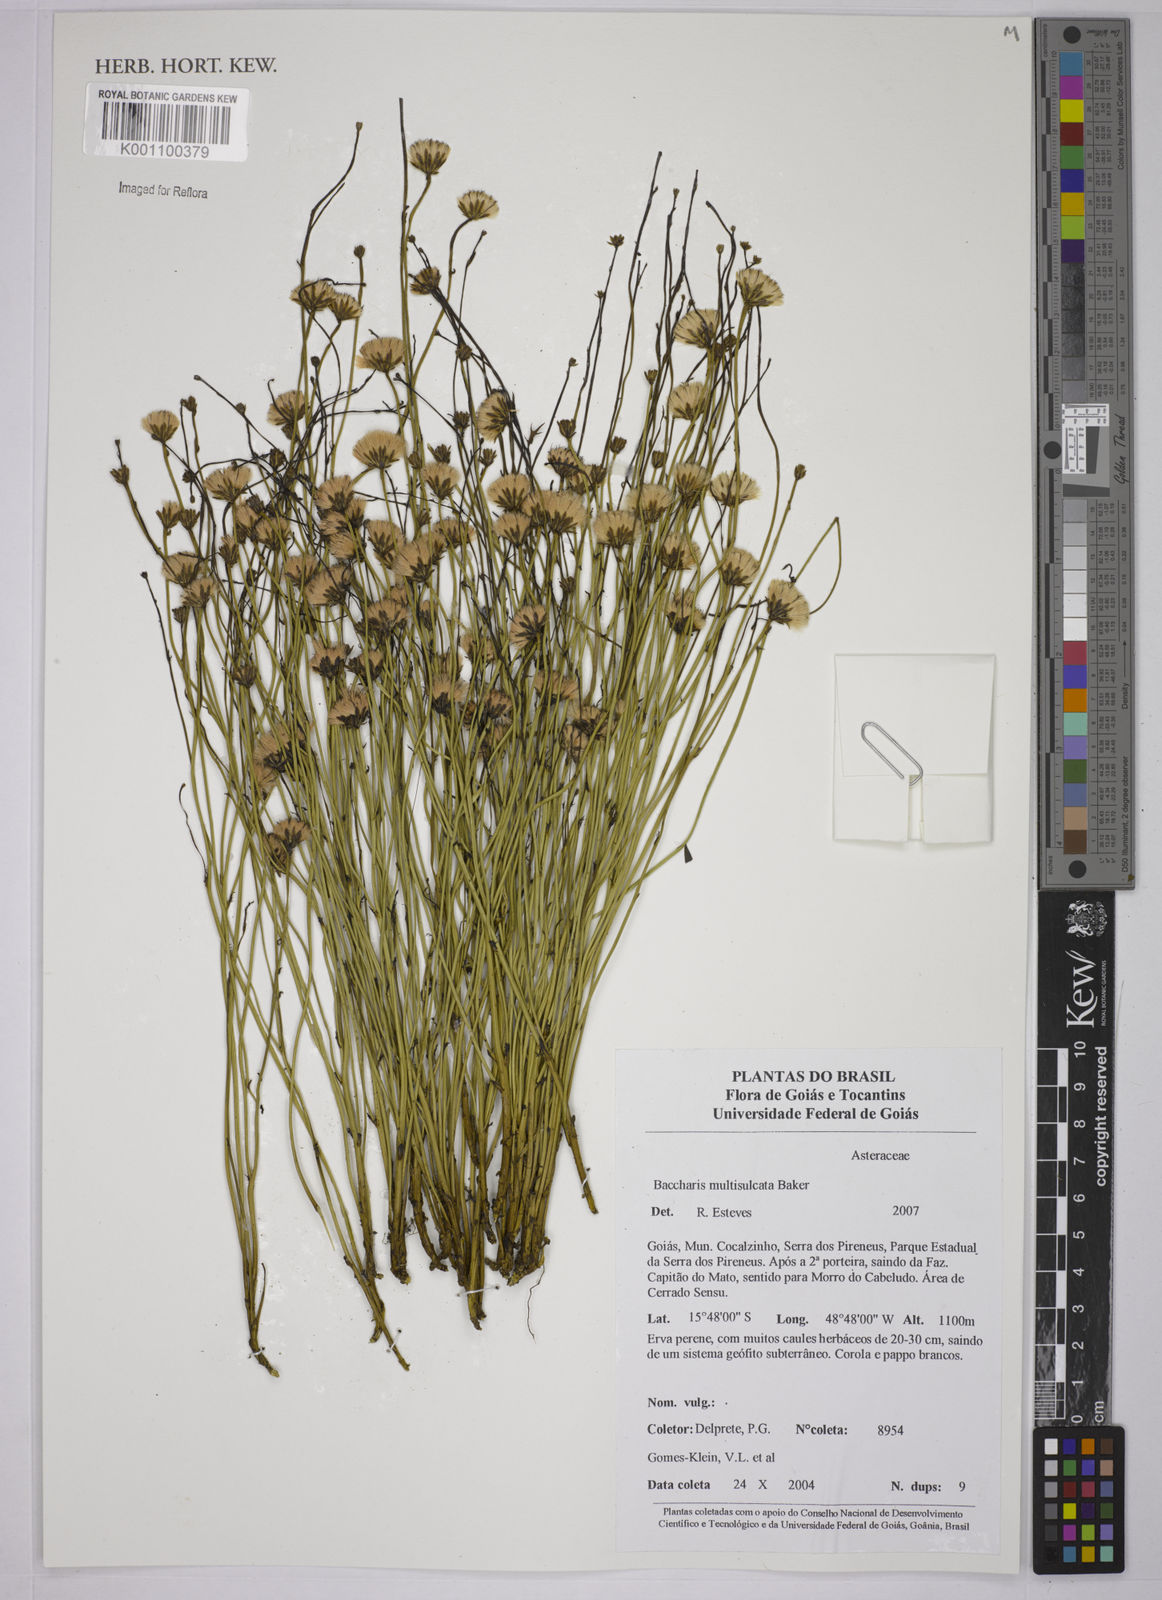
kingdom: Plantae
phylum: Tracheophyta
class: Magnoliopsida
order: Asterales
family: Asteraceae
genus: Baccharis
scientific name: Baccharis orbignyana
